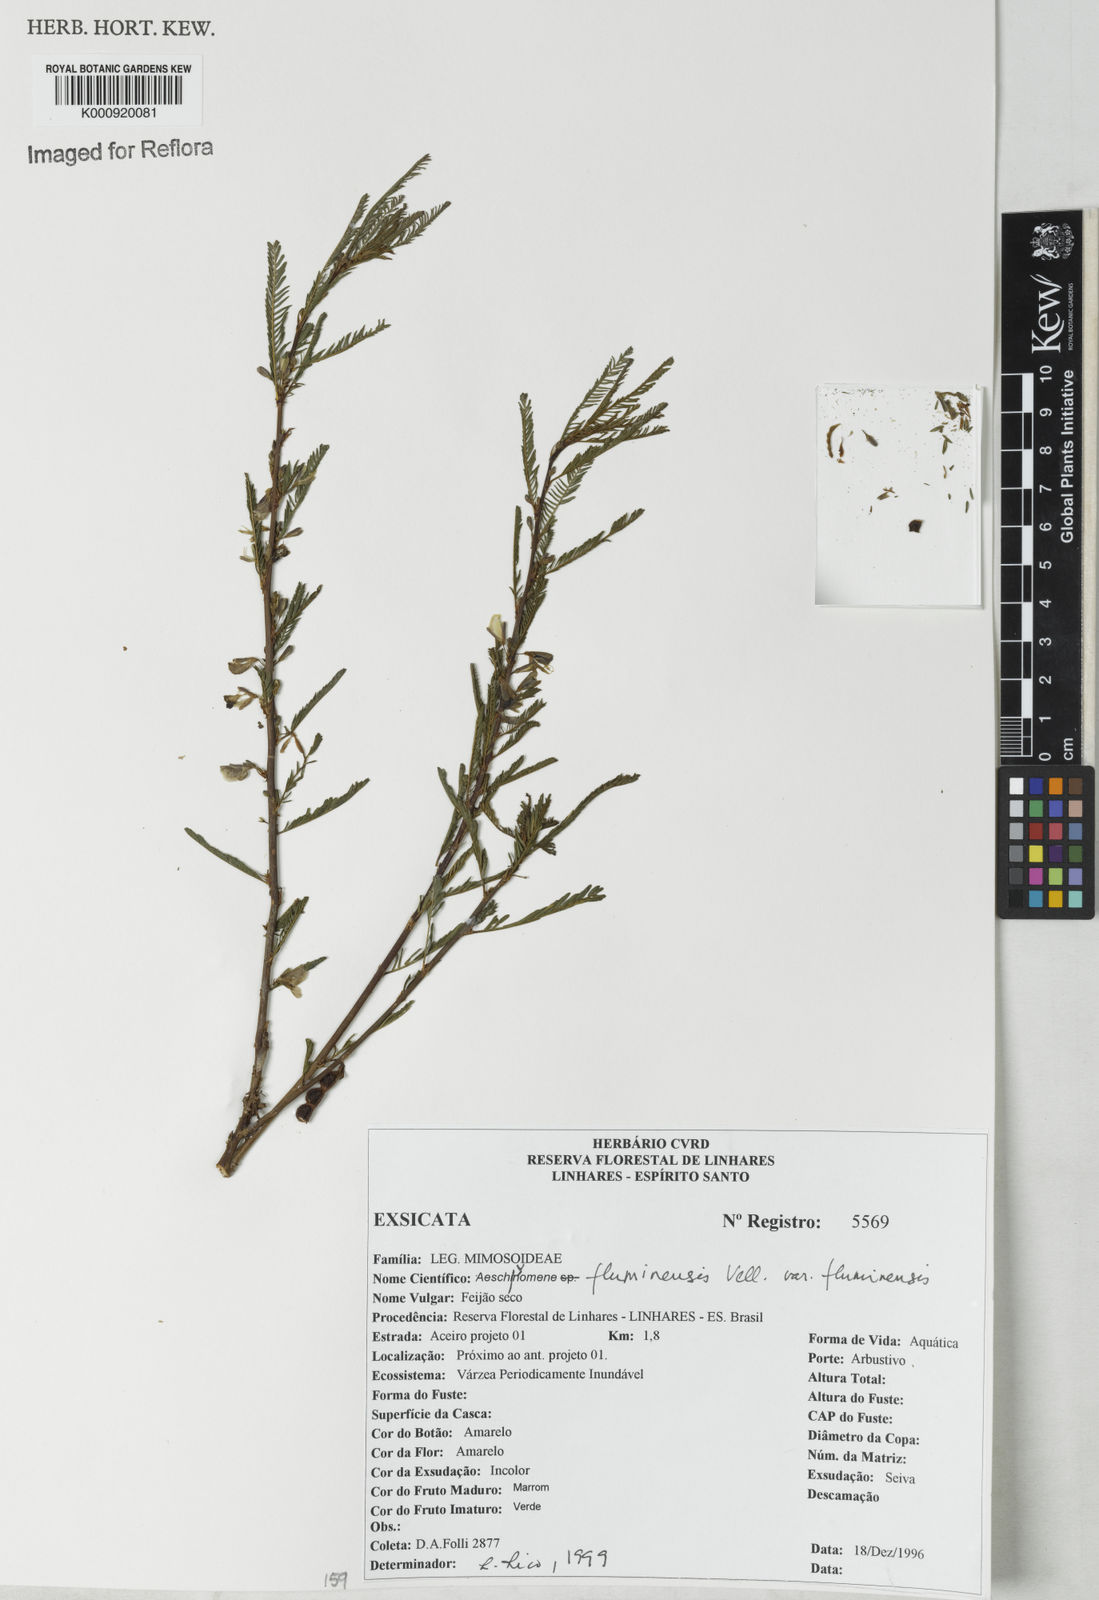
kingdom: Plantae
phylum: Tracheophyta
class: Magnoliopsida
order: Fabales
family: Fabaceae
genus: Aeschynomene
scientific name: Aeschynomene fluminensis
